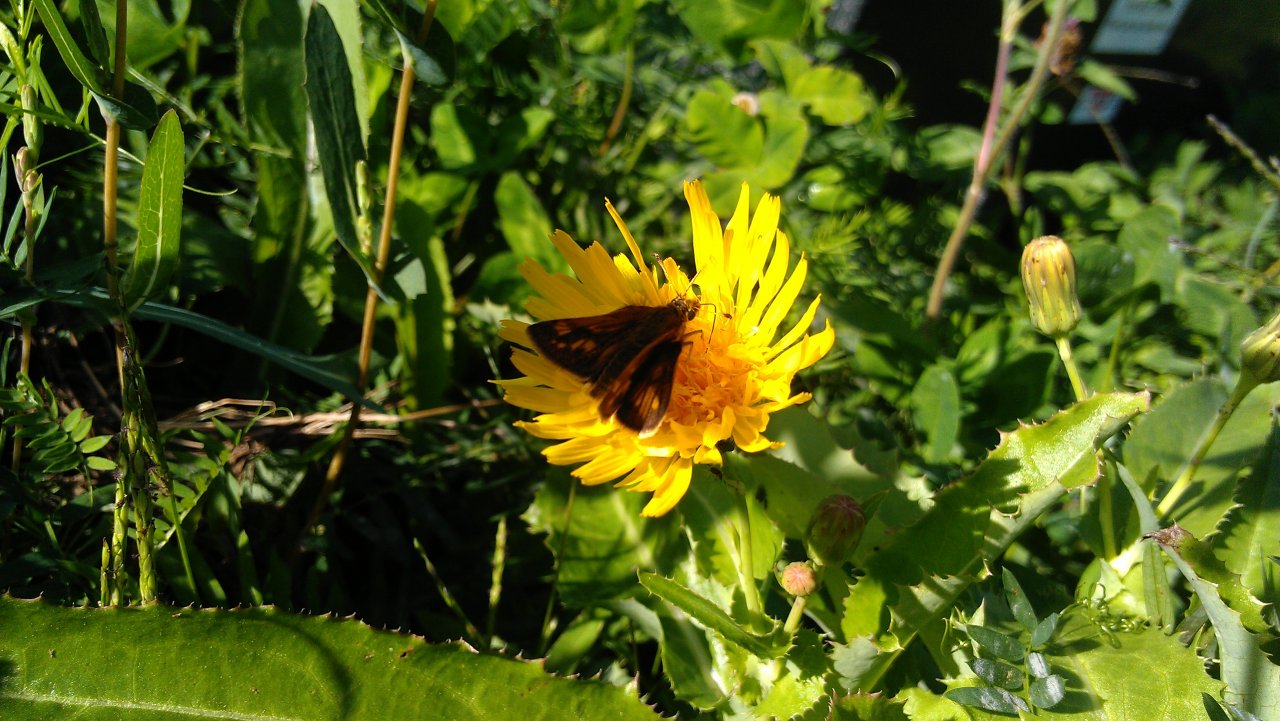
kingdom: Animalia
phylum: Arthropoda
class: Insecta
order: Lepidoptera
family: Hesperiidae
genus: Polites
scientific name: Polites coras
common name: Peck's Skipper
